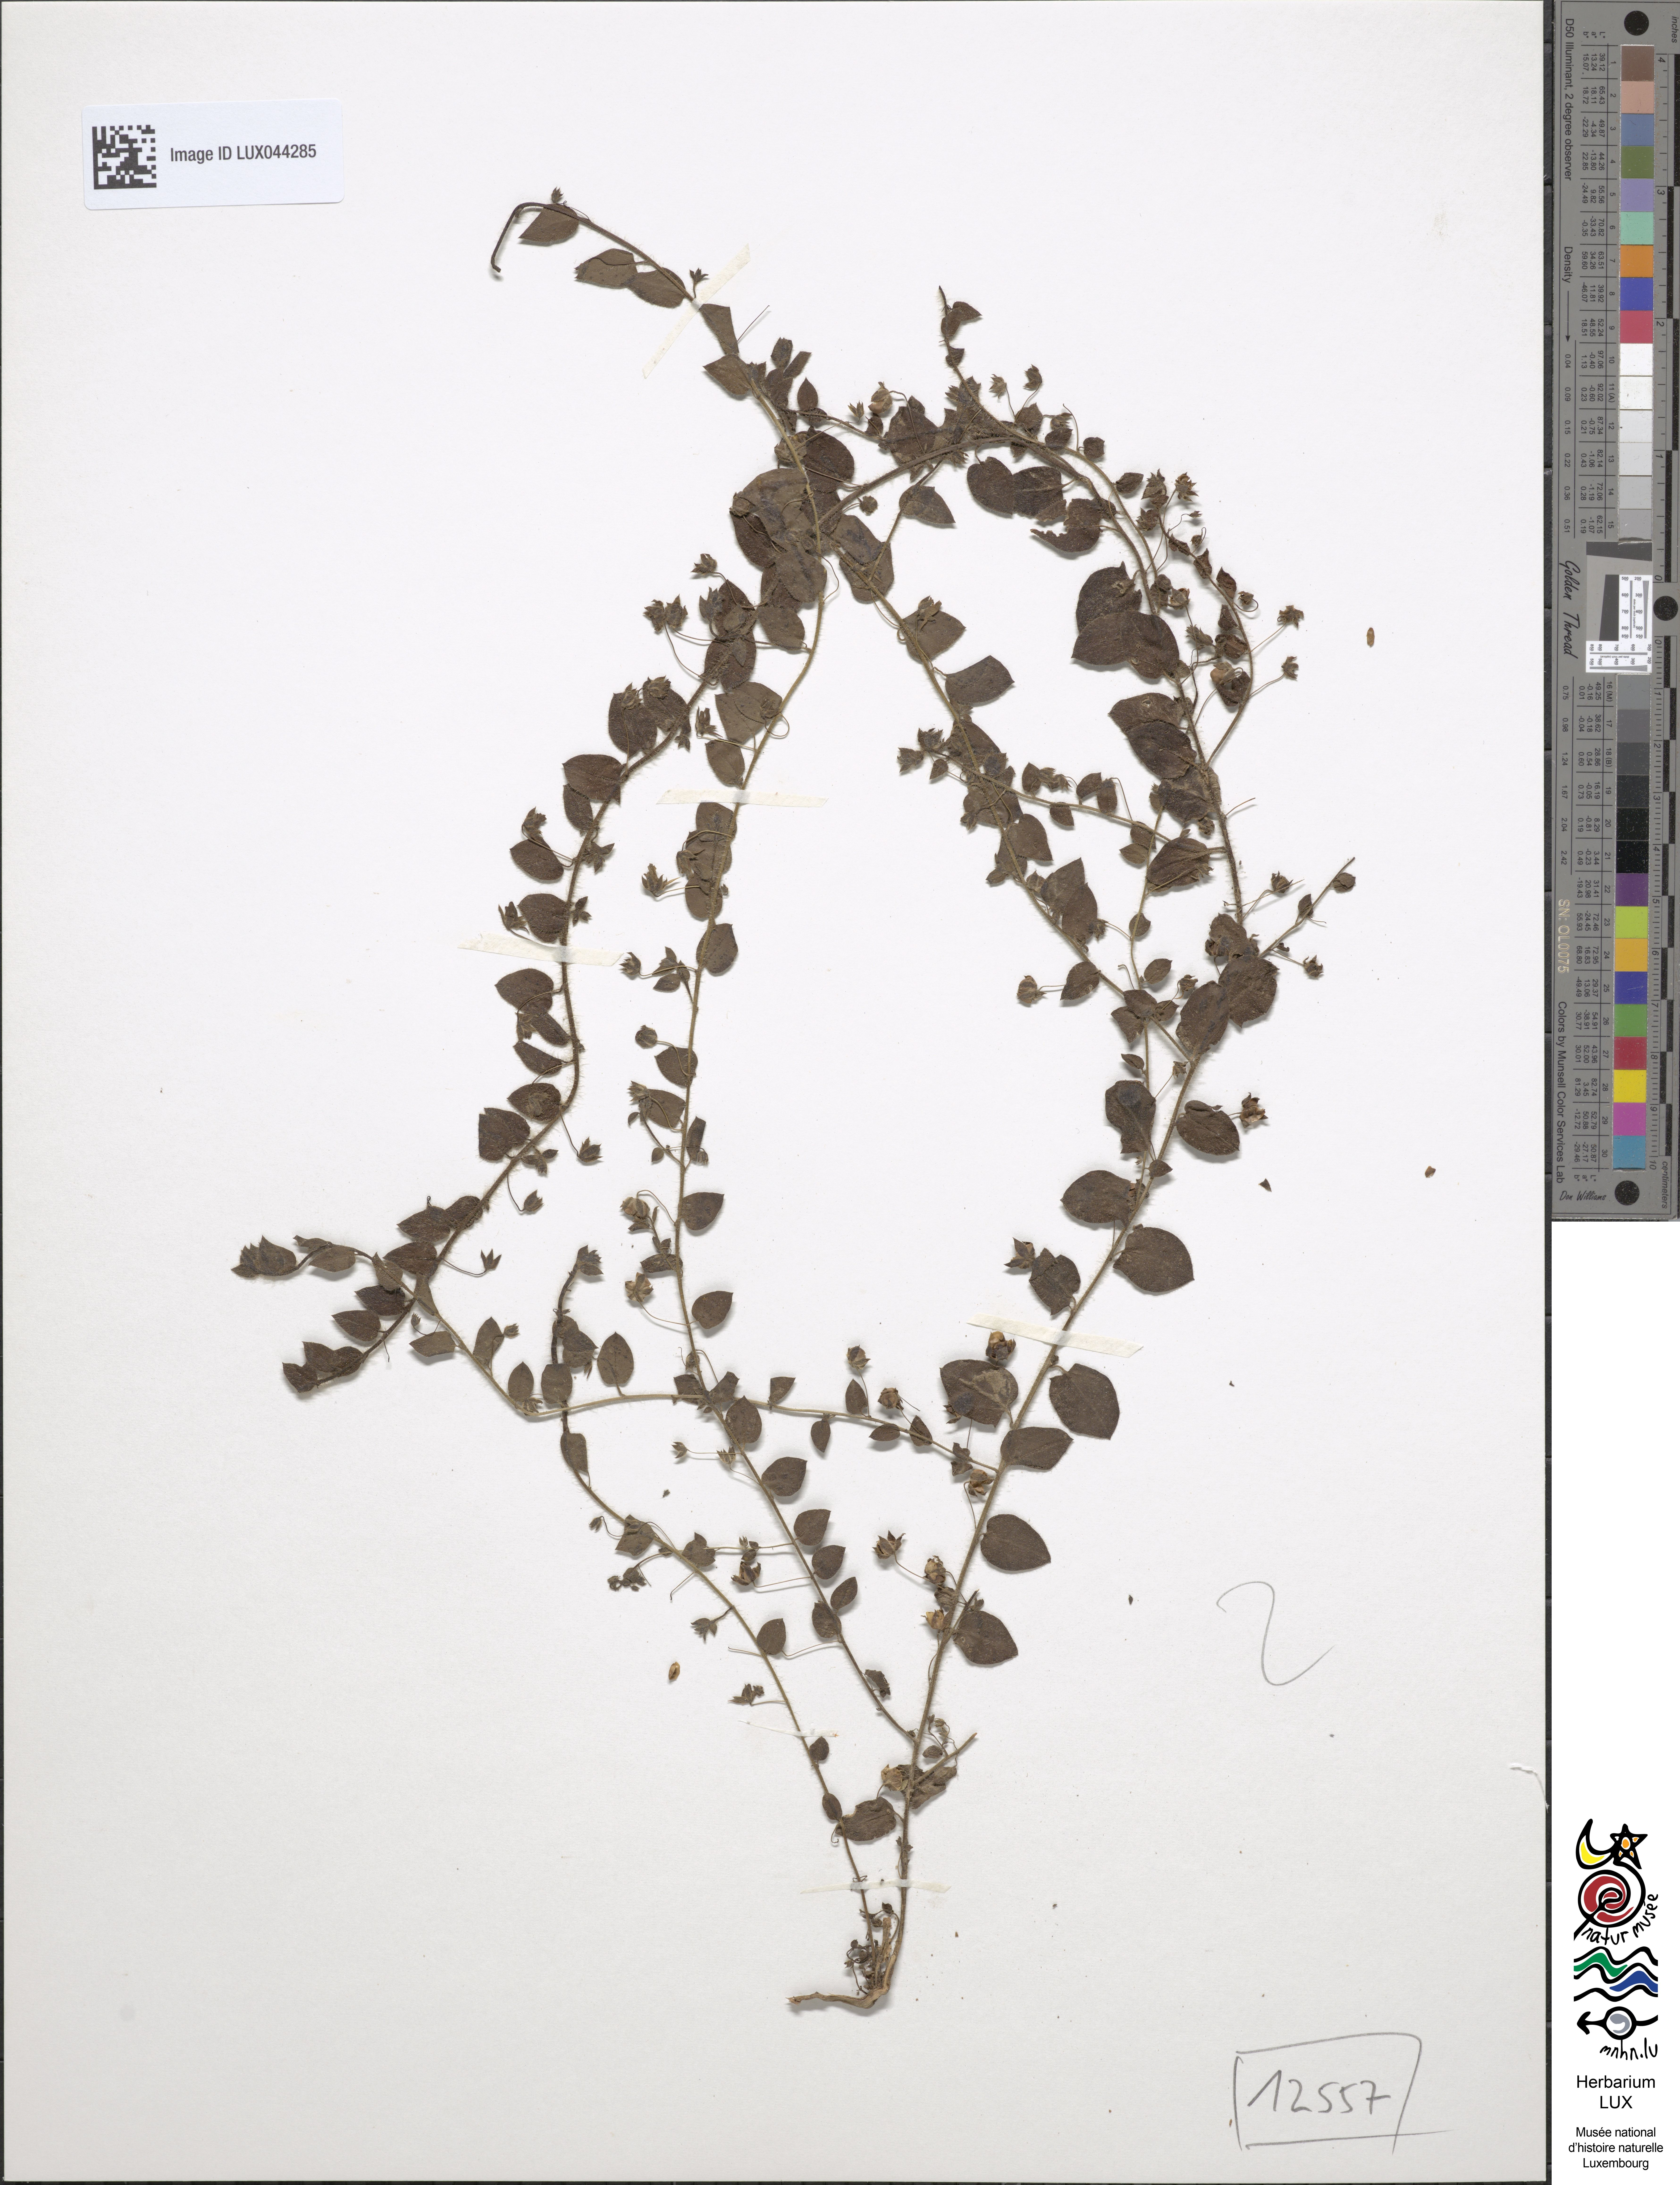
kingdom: Plantae
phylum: Tracheophyta
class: Magnoliopsida
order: Lamiales
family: Plantaginaceae
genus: Kickxia
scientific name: Kickxia spuria
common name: Round-leaved fluellen
